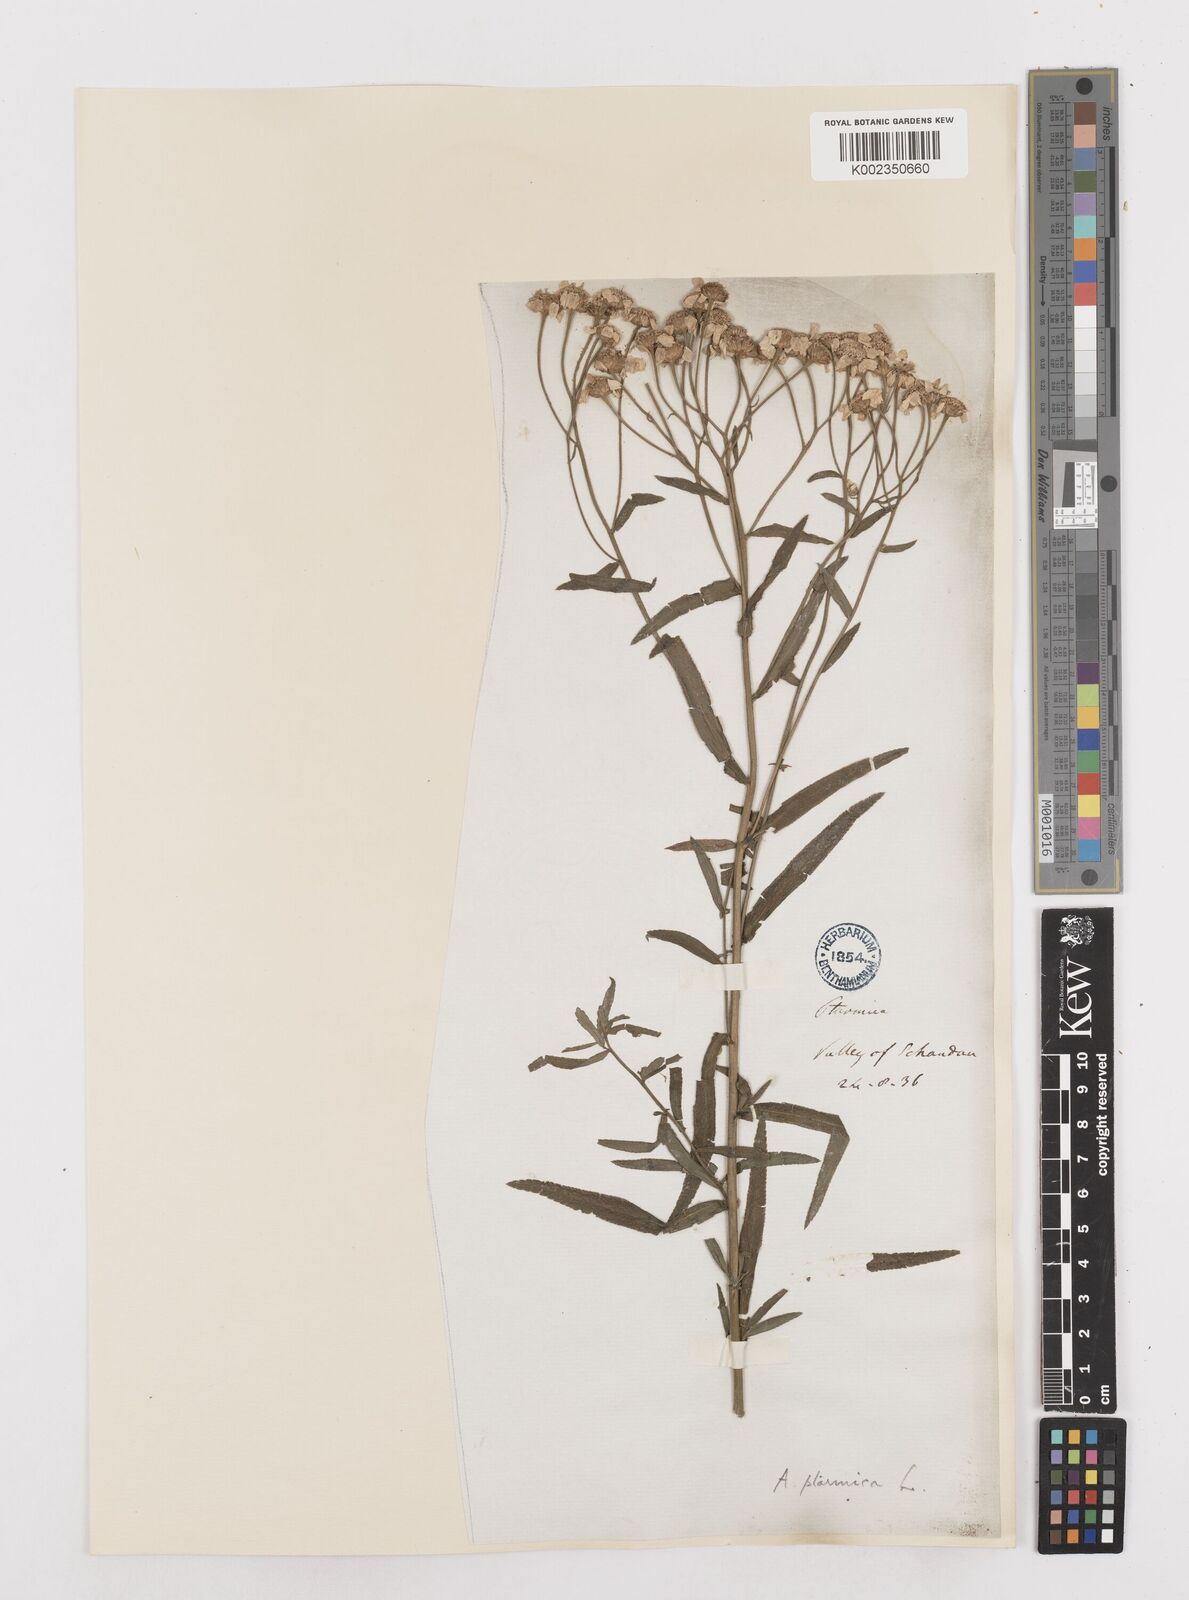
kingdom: Plantae
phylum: Tracheophyta
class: Magnoliopsida
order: Asterales
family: Asteraceae
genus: Achillea
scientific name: Achillea ptarmica
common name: Sneezeweed
